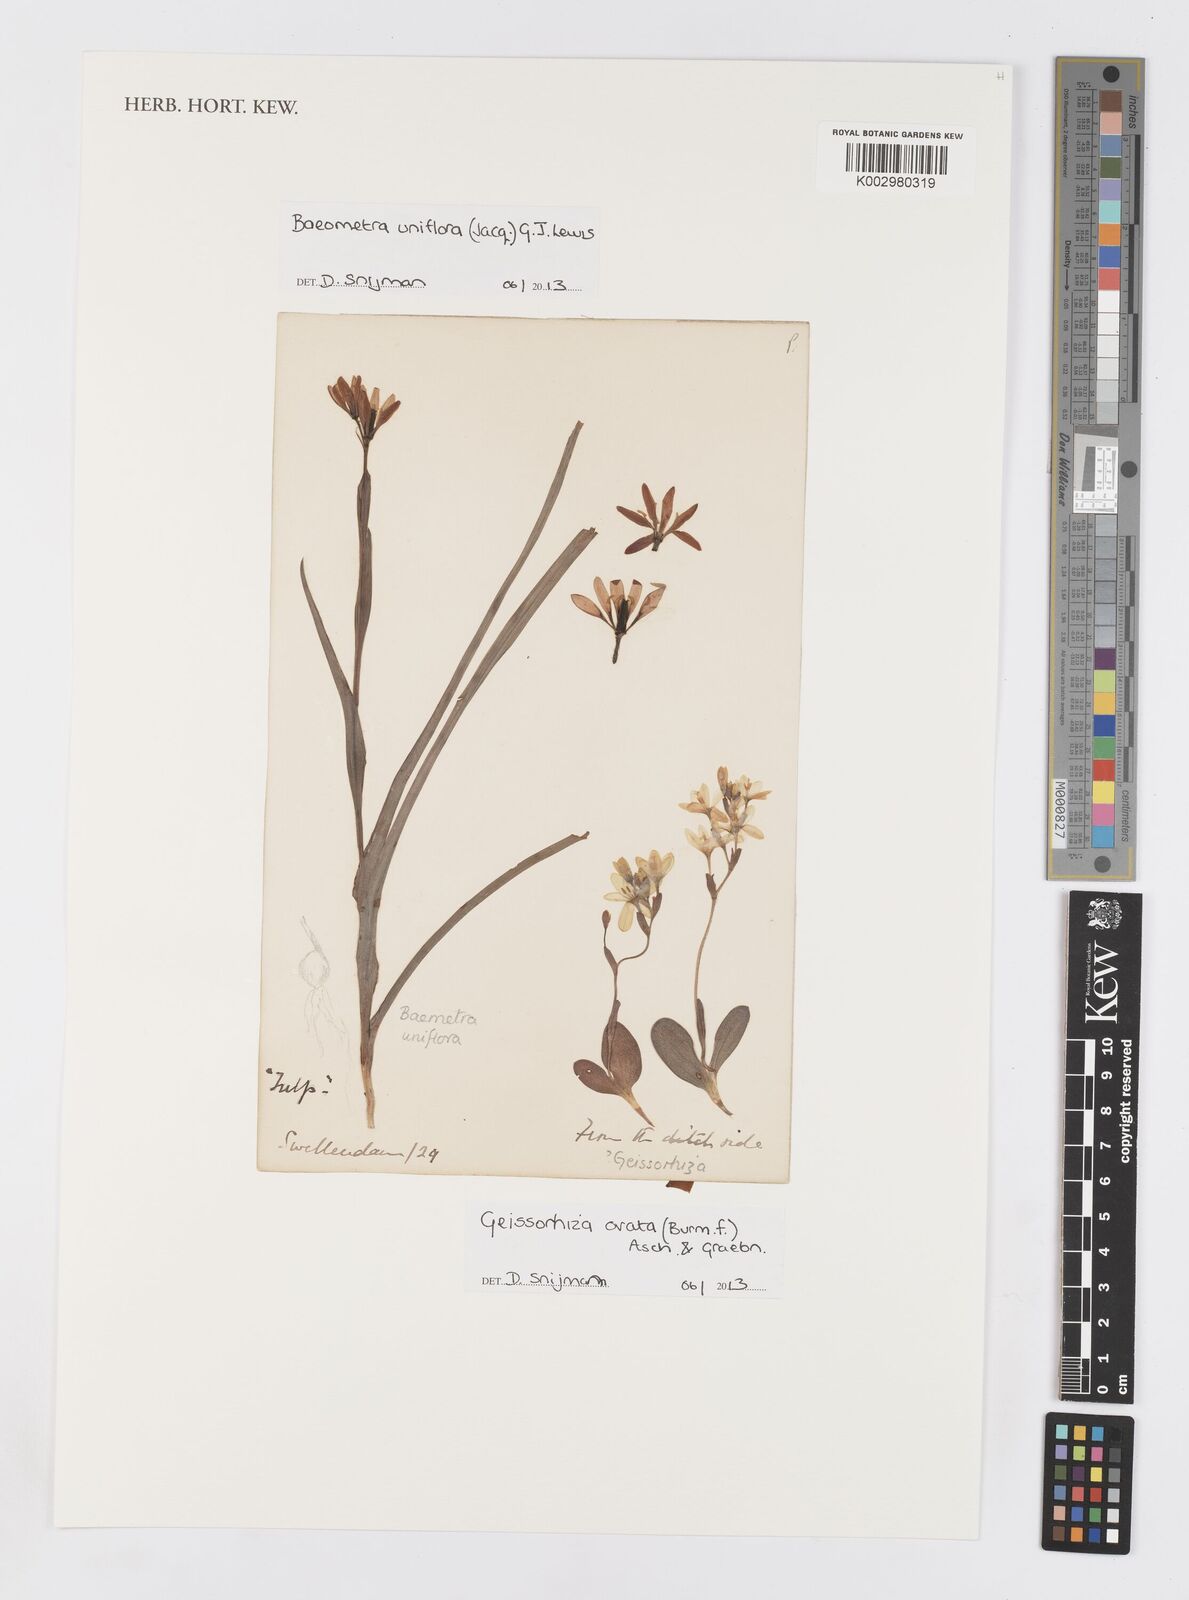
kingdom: Plantae
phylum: Tracheophyta
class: Liliopsida
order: Asparagales
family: Iridaceae
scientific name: Iridaceae
